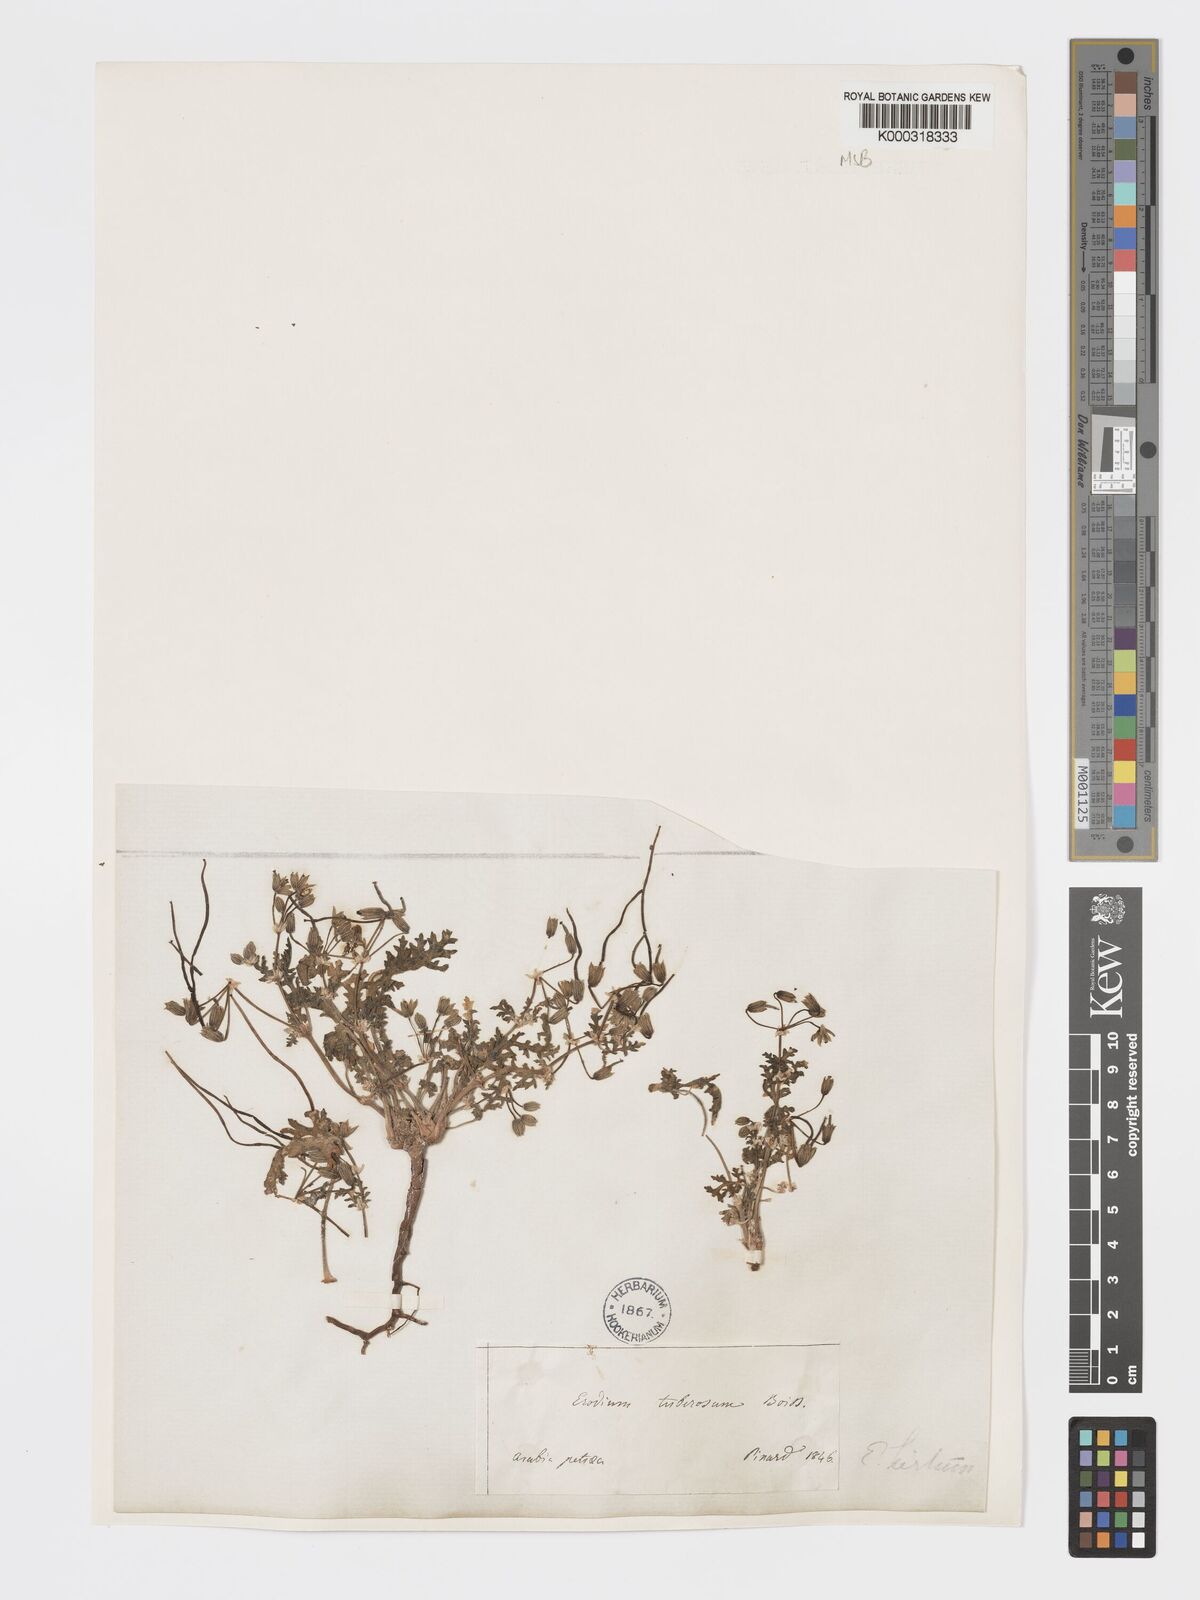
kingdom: Plantae
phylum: Tracheophyta
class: Magnoliopsida
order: Geraniales
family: Geraniaceae
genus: Erodium
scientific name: Erodium crassifolium
